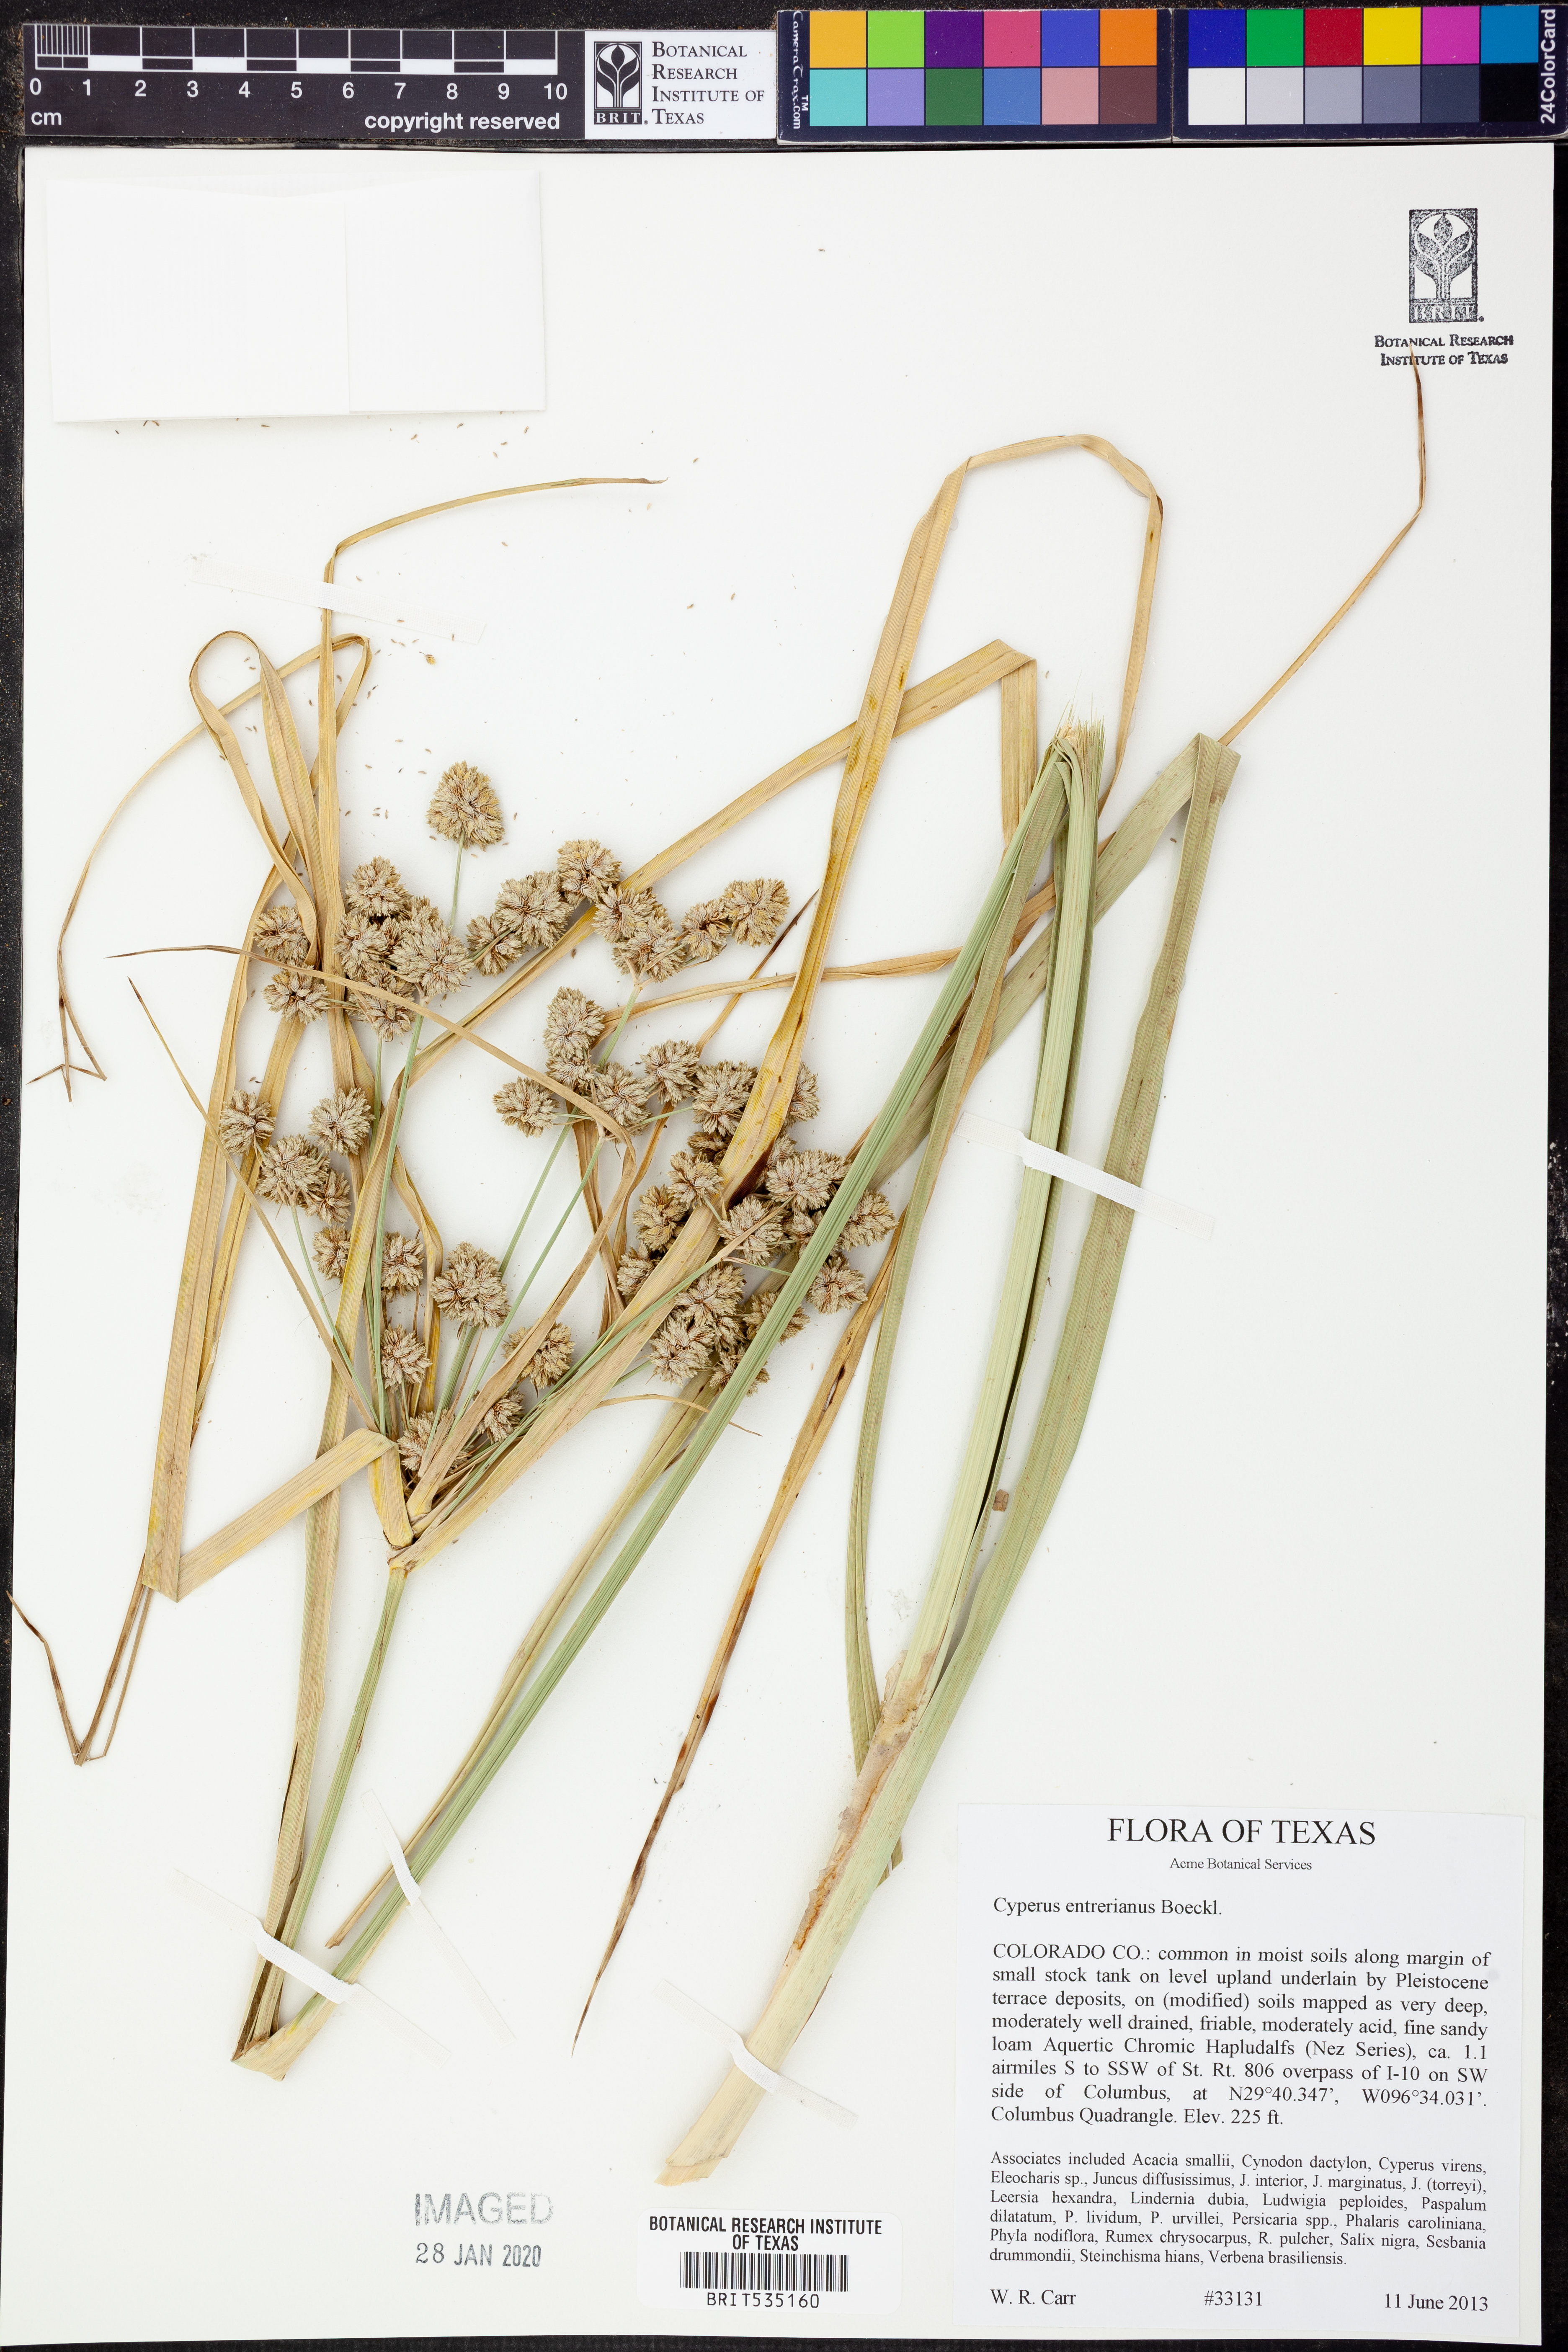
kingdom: Plantae
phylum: Tracheophyta
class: Liliopsida
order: Poales
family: Cyperaceae
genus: Cyperus
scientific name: Cyperus entrerianus
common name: Woodrush flatsedge
